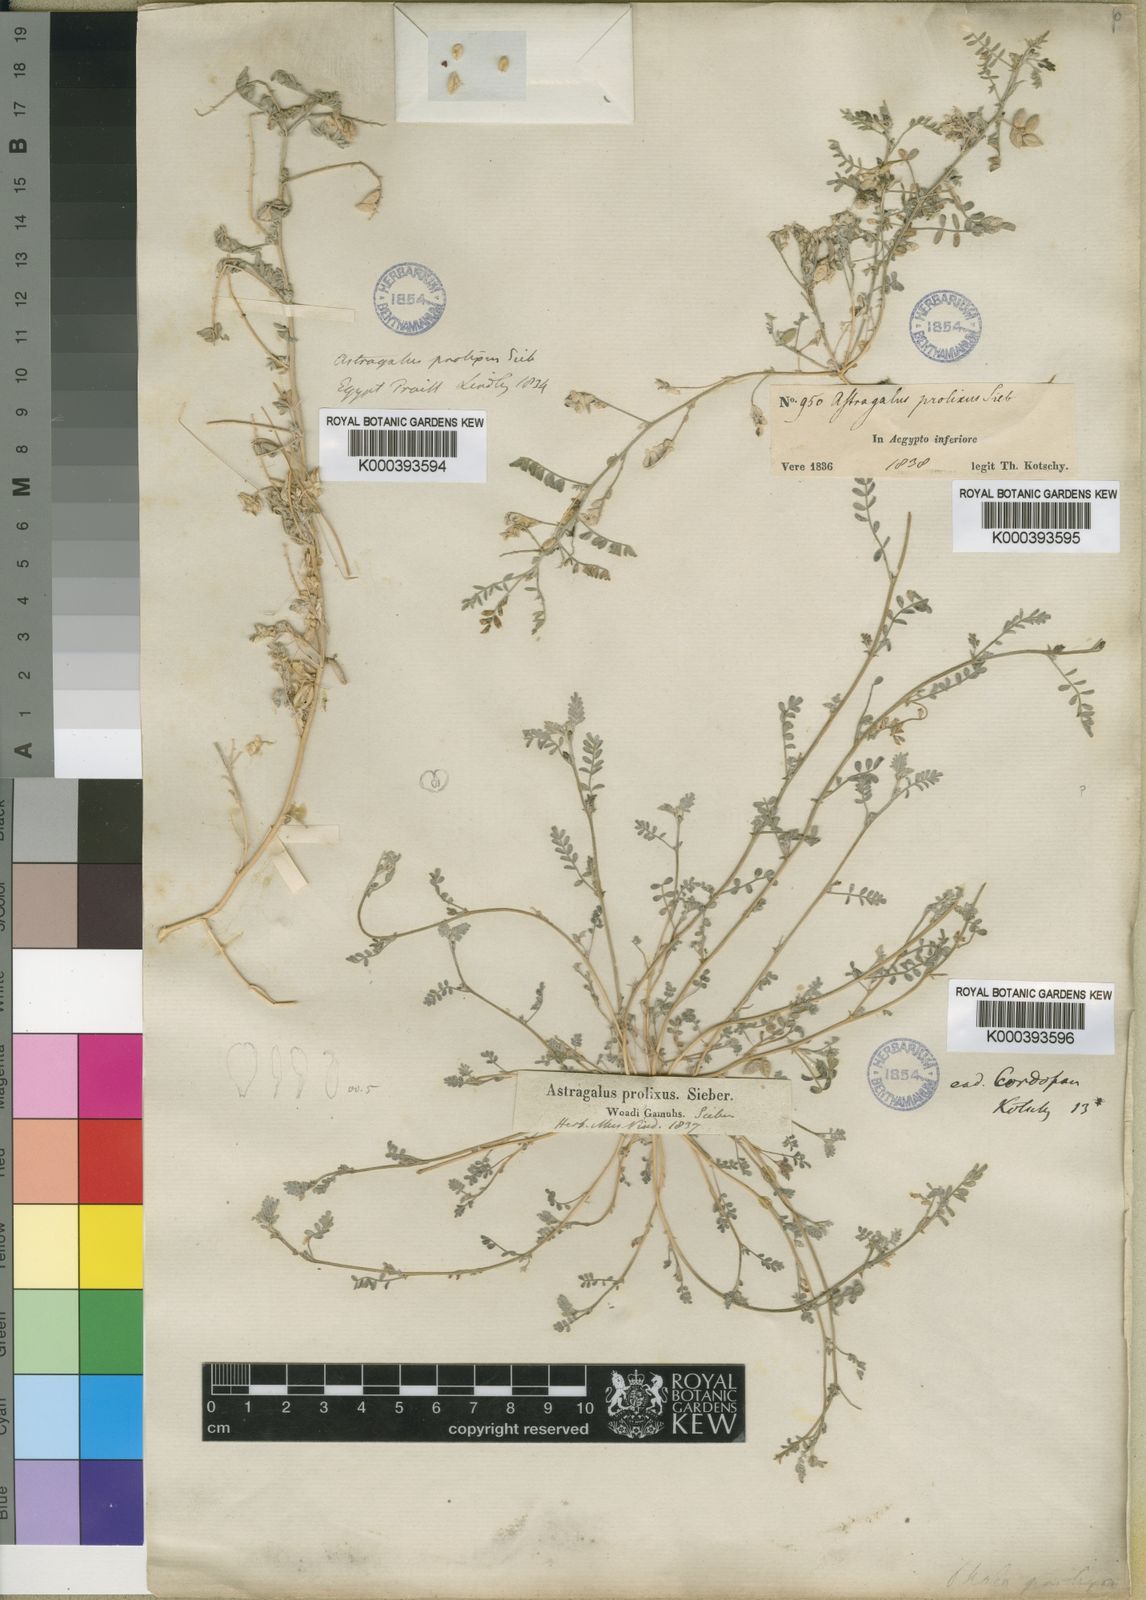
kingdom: Plantae
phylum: Tracheophyta
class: Magnoliopsida
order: Fabales
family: Fabaceae
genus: Astragalus
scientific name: Astragalus
